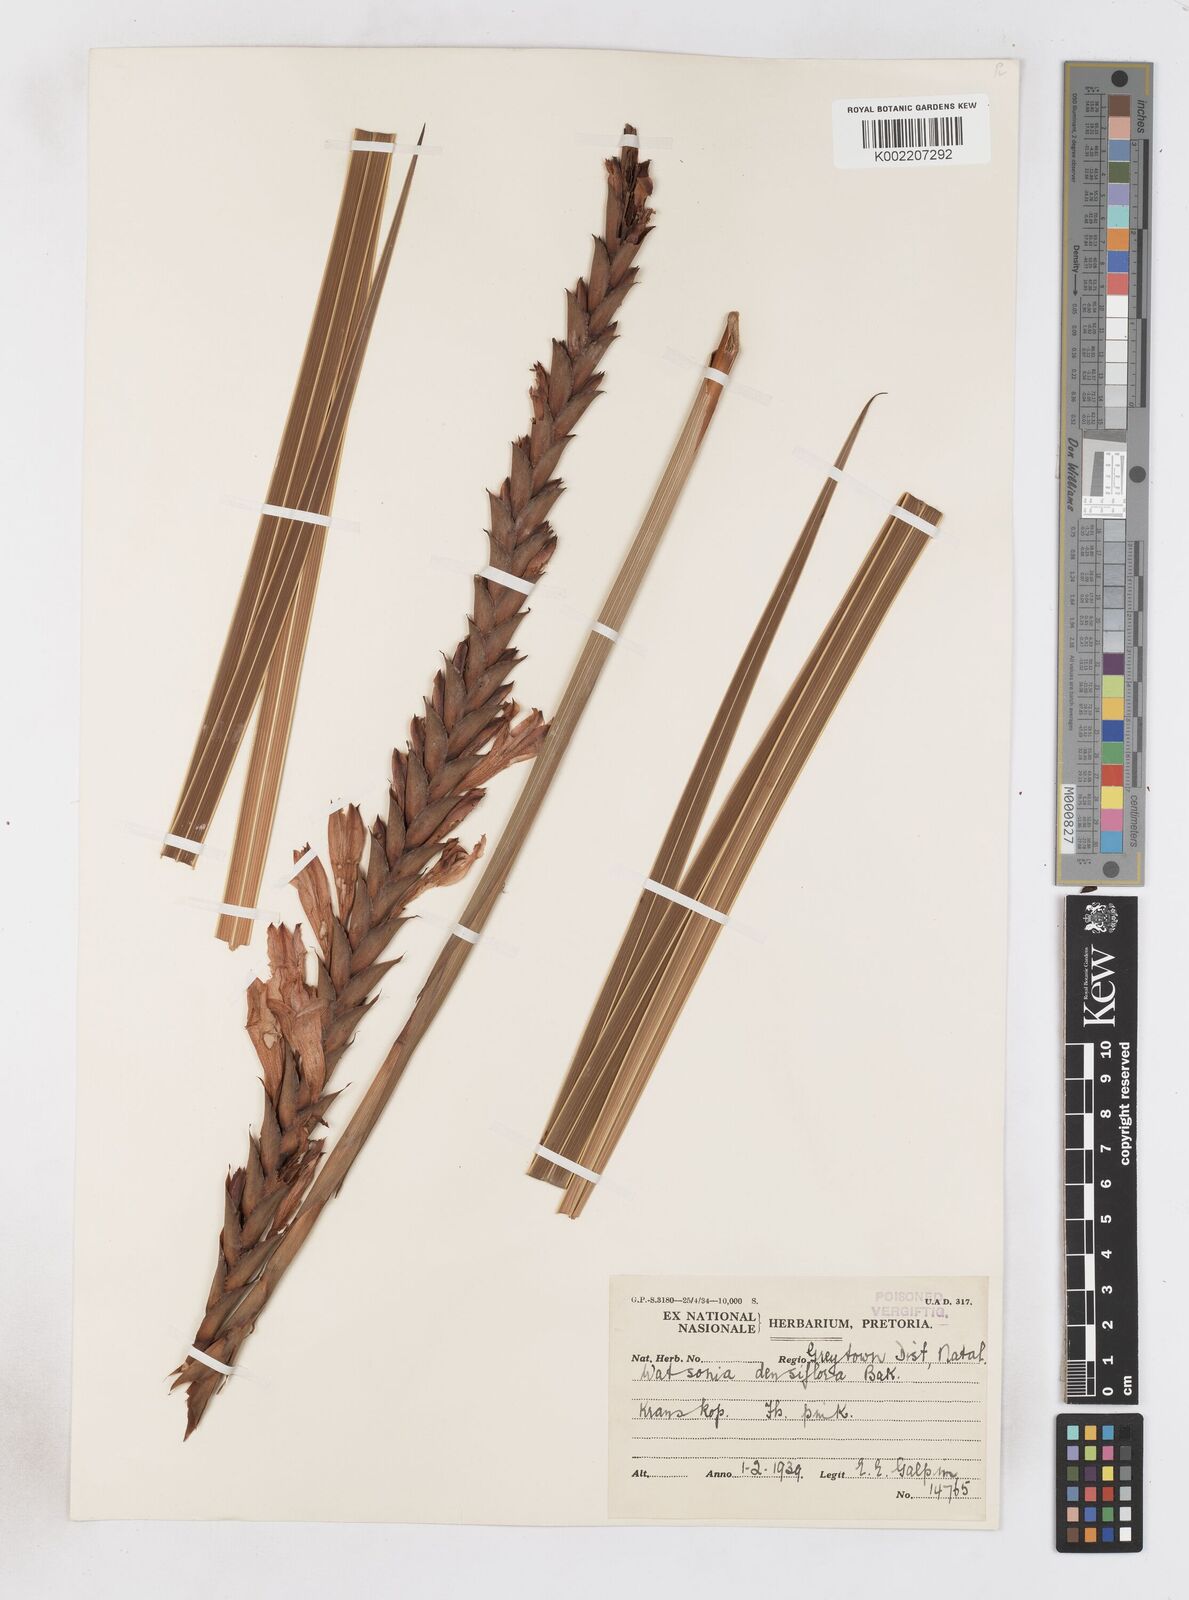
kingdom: Plantae
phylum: Tracheophyta
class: Liliopsida
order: Asparagales
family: Iridaceae
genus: Watsonia
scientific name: Watsonia densiflora
